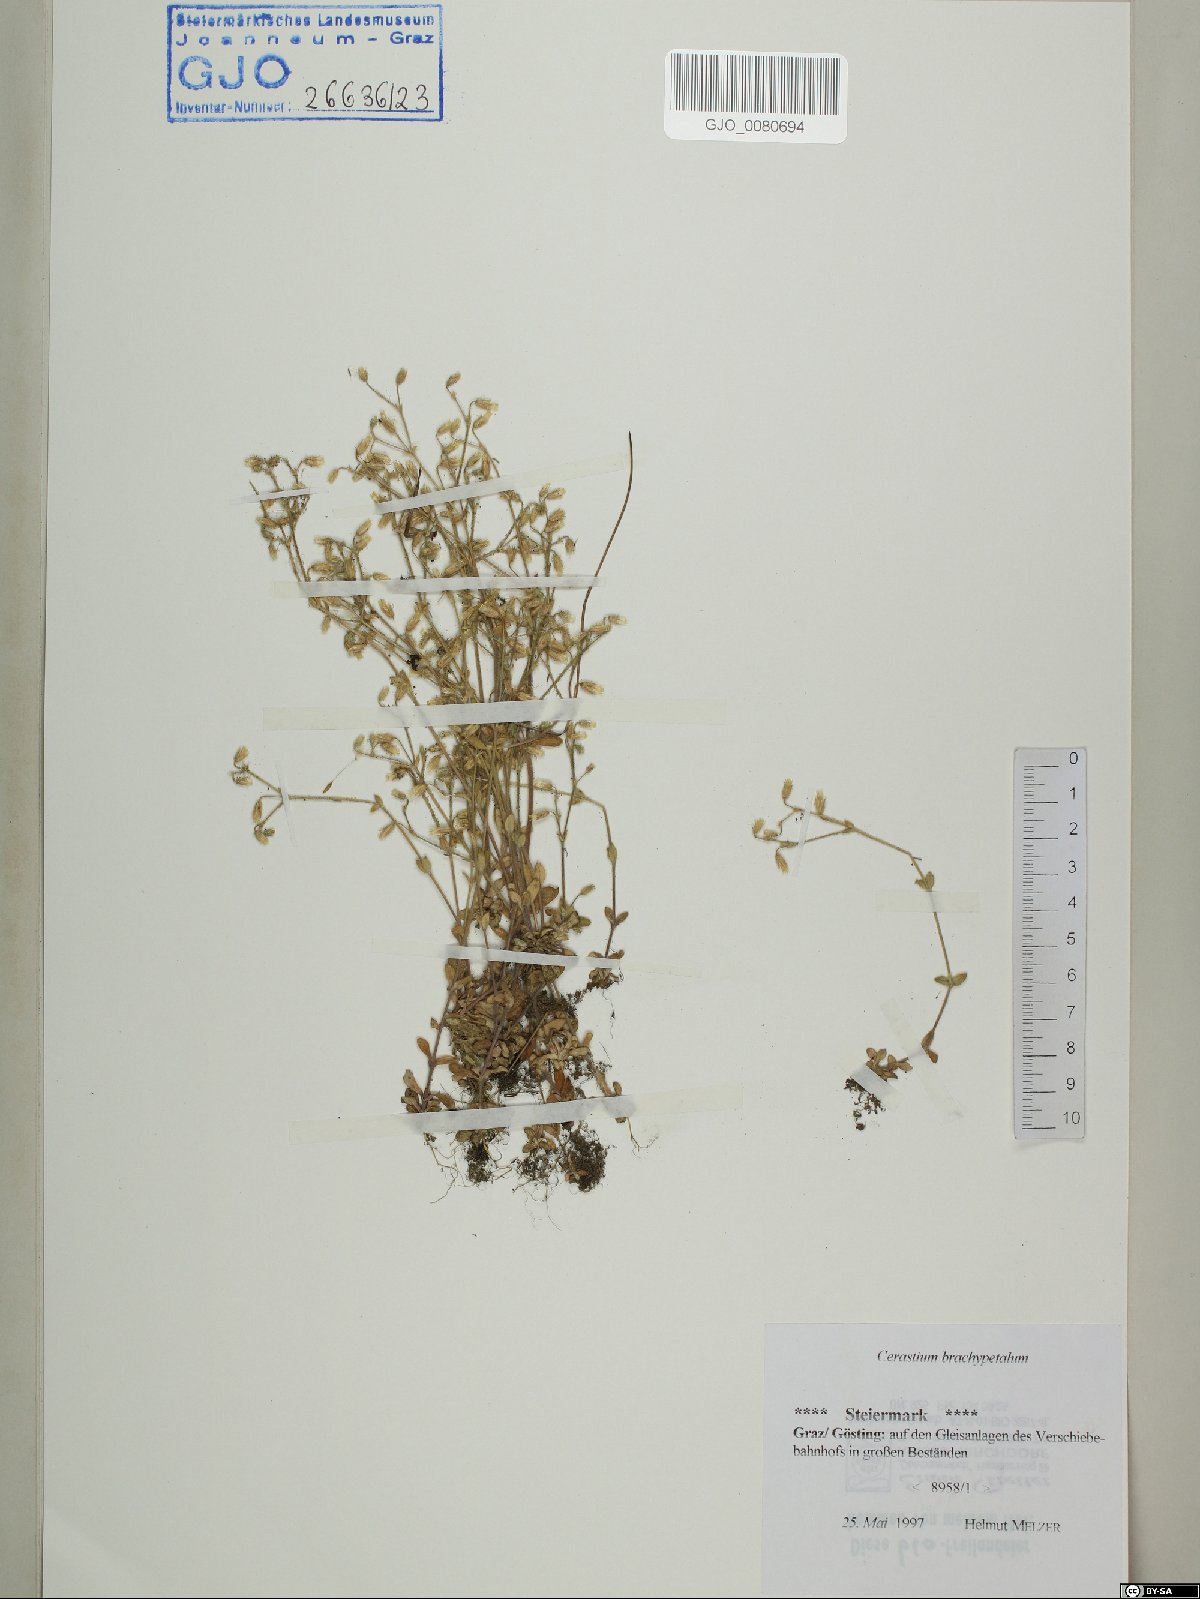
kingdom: Plantae
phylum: Tracheophyta
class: Magnoliopsida
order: Caryophyllales
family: Caryophyllaceae
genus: Cerastium
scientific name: Cerastium brachypetalum
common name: Grey mouse-ear
